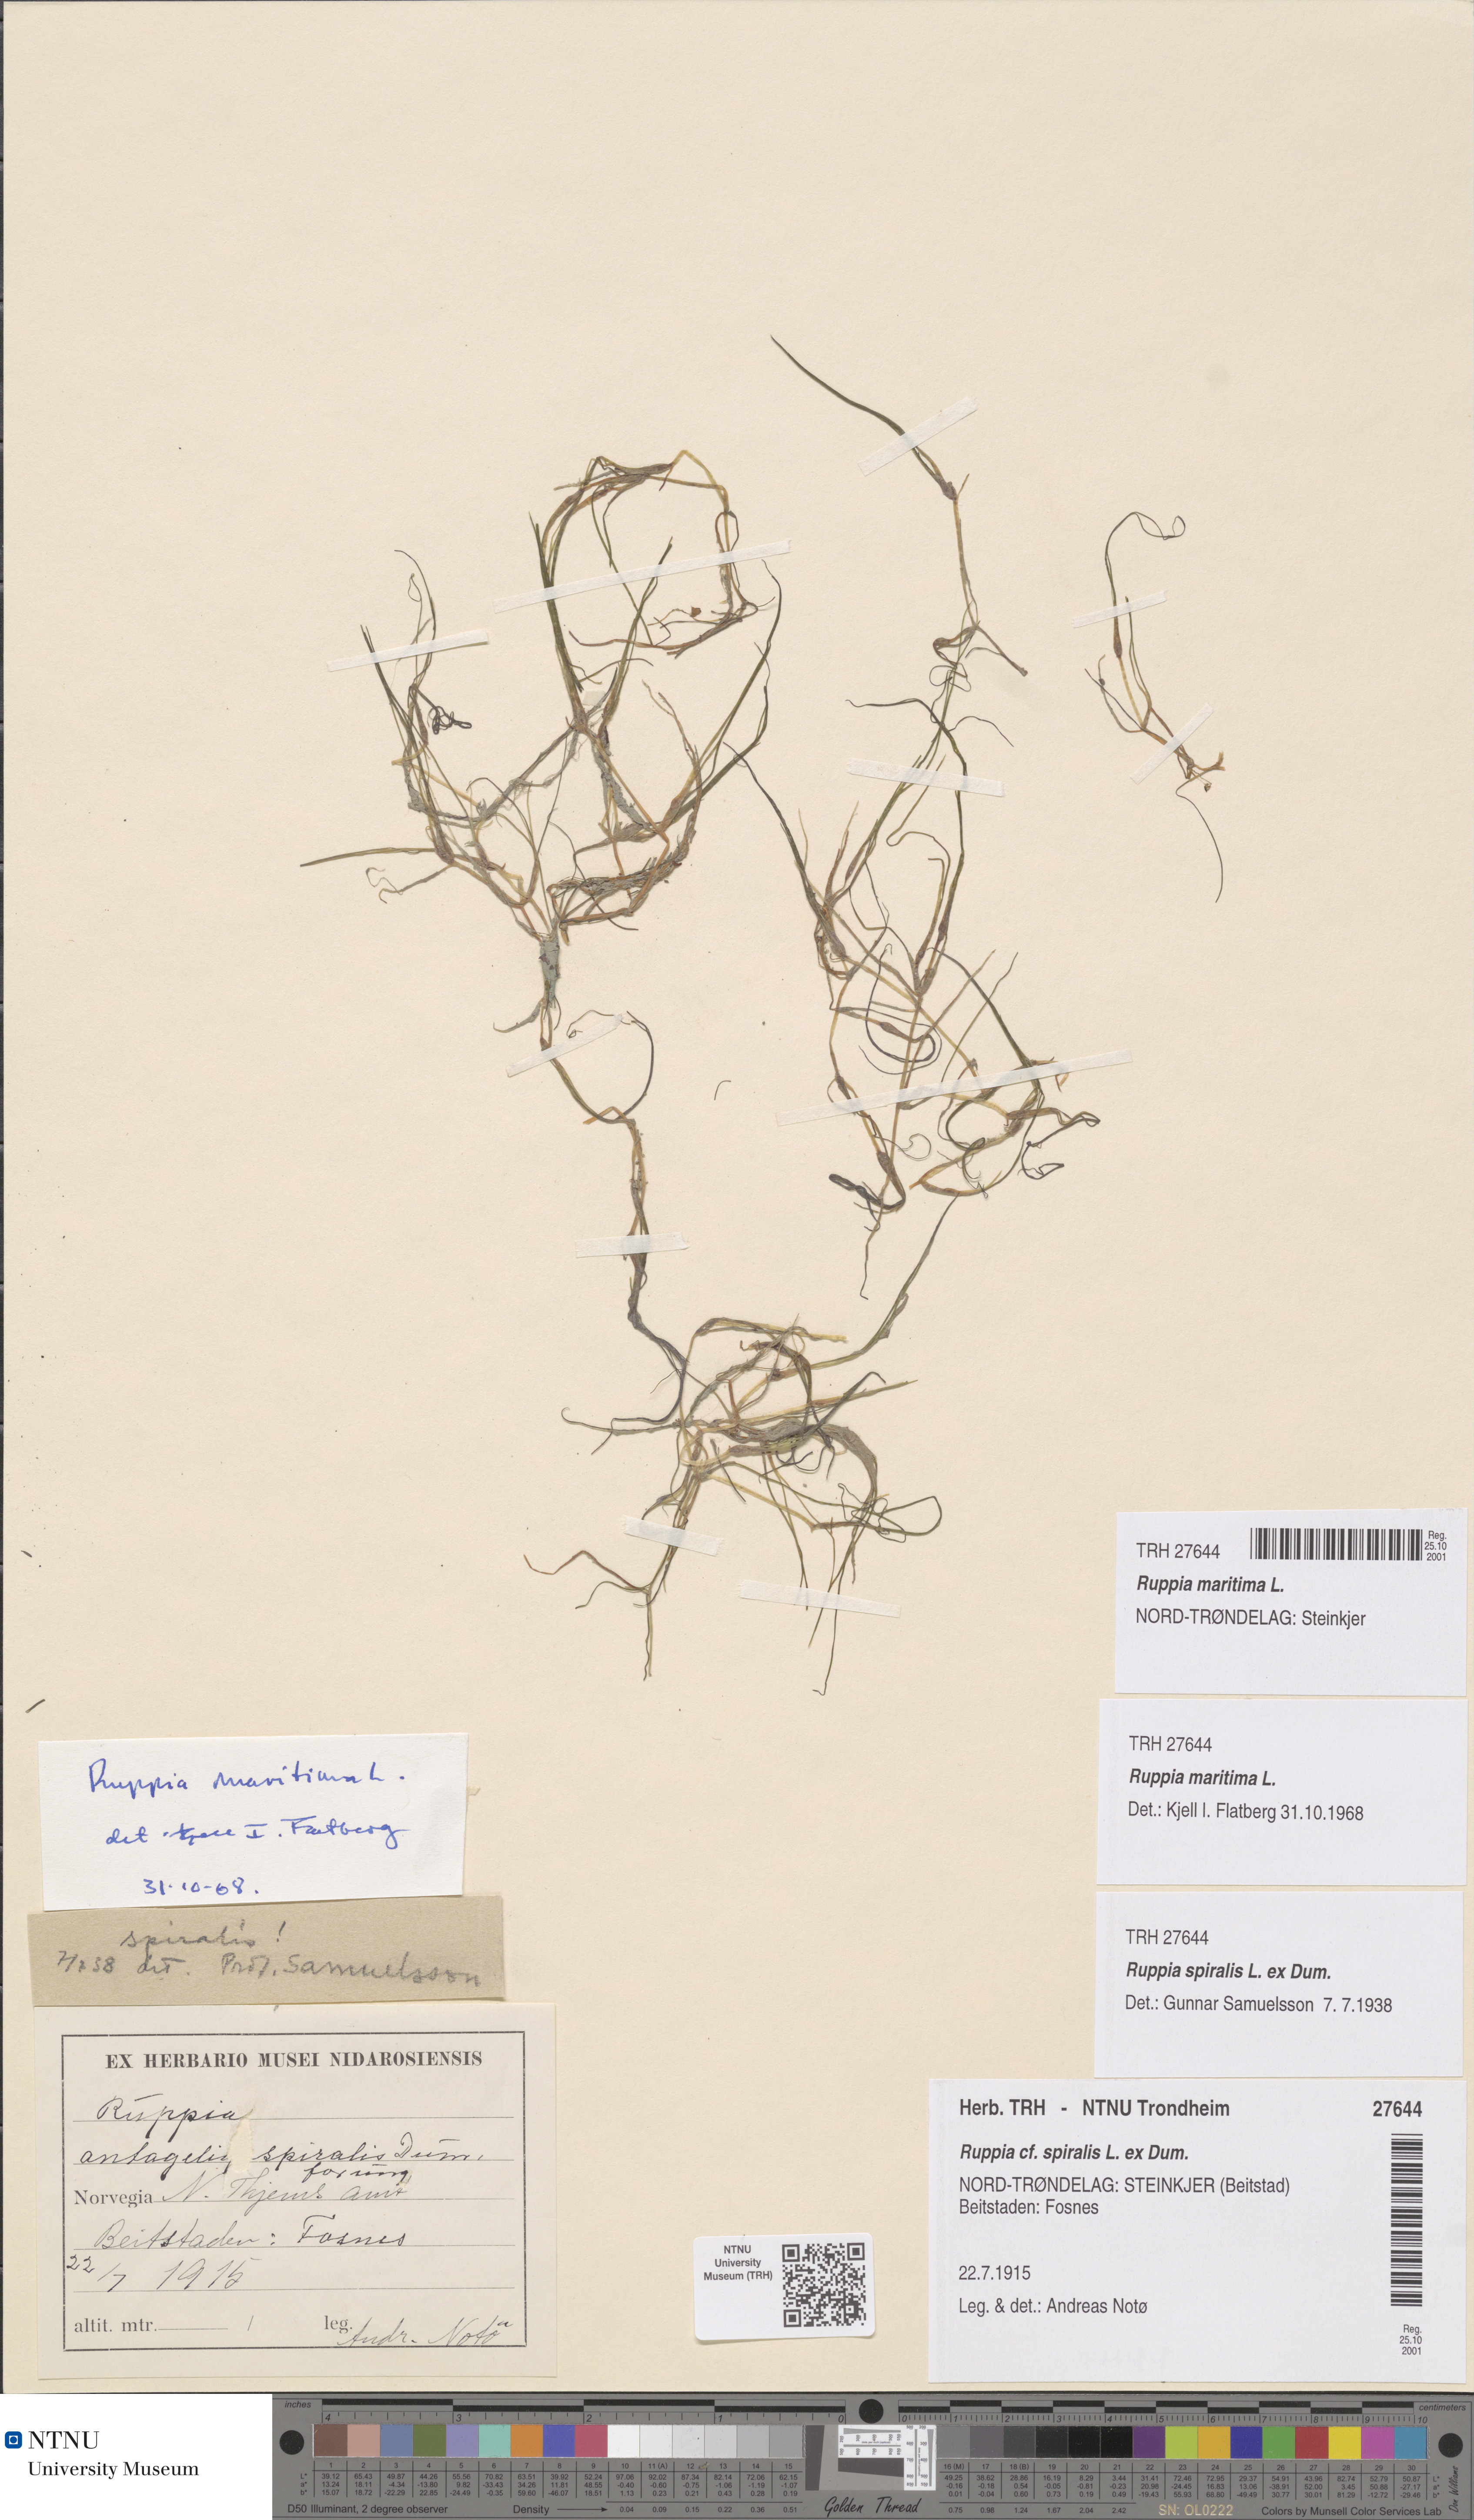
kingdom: Plantae
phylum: Tracheophyta
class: Liliopsida
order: Alismatales
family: Ruppiaceae
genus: Ruppia
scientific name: Ruppia maritima
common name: Beaked tasselweed
